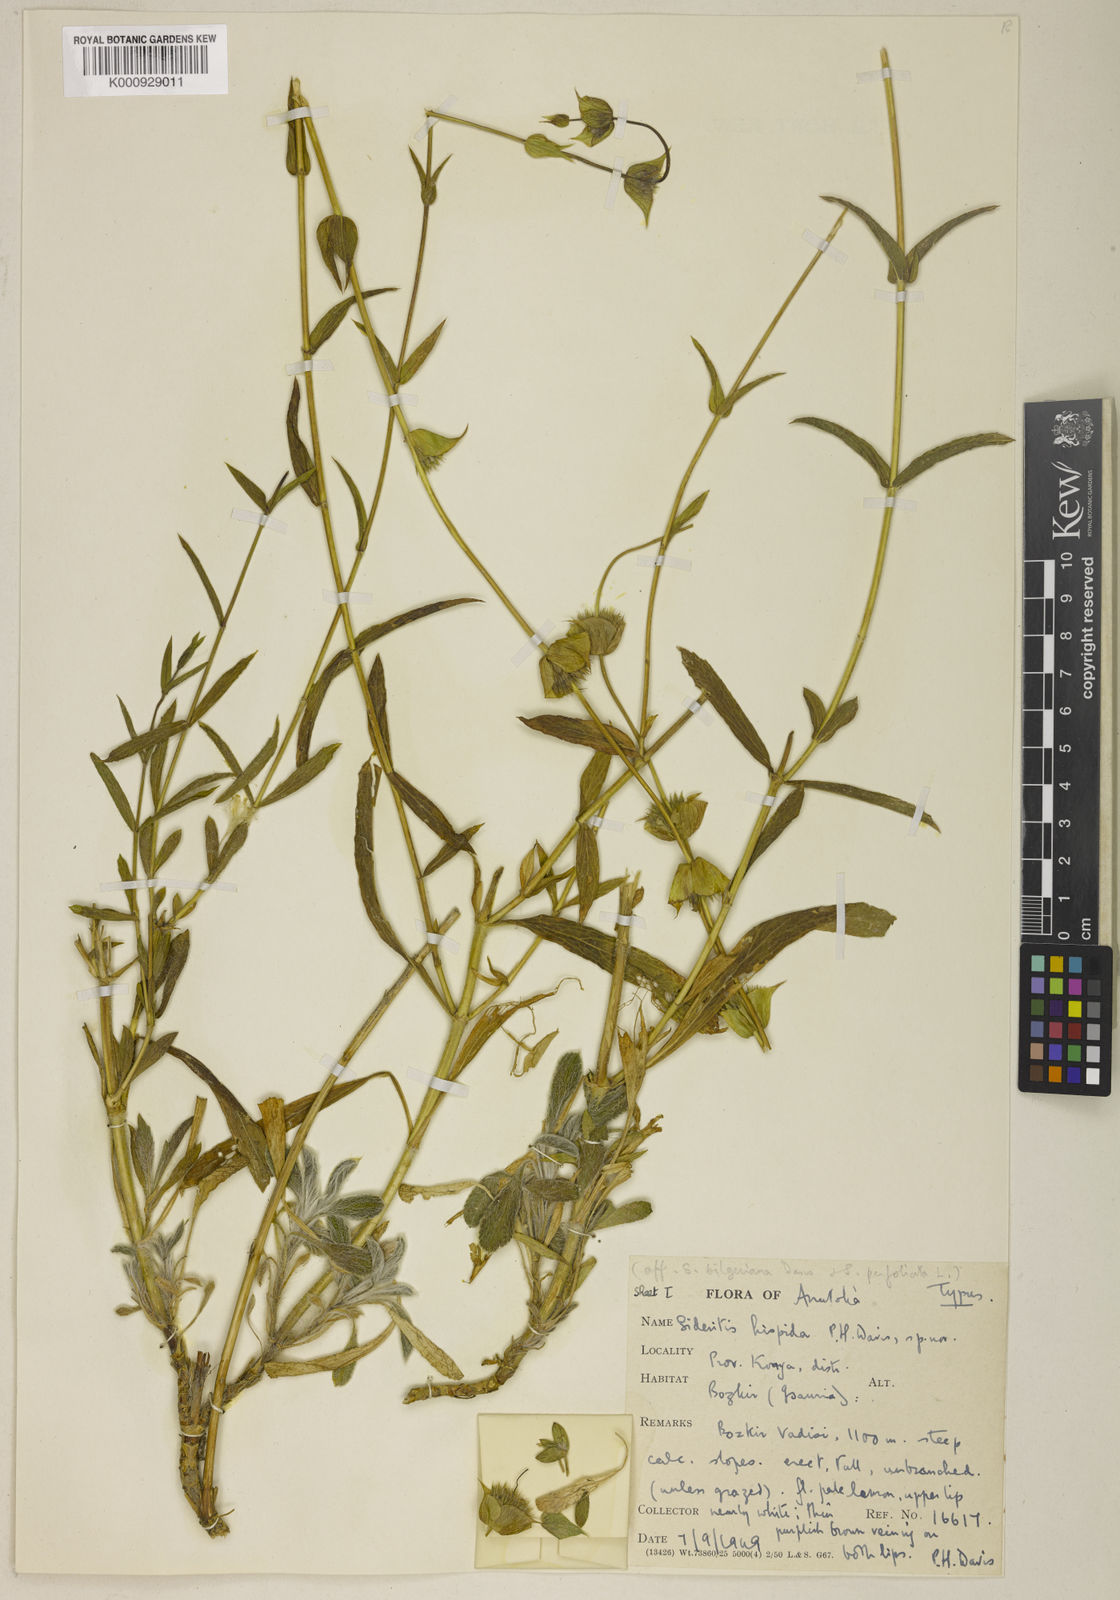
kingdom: Plantae
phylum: Tracheophyta
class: Magnoliopsida
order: Lamiales
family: Lamiaceae
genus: Sideritis
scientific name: Sideritis hispida
